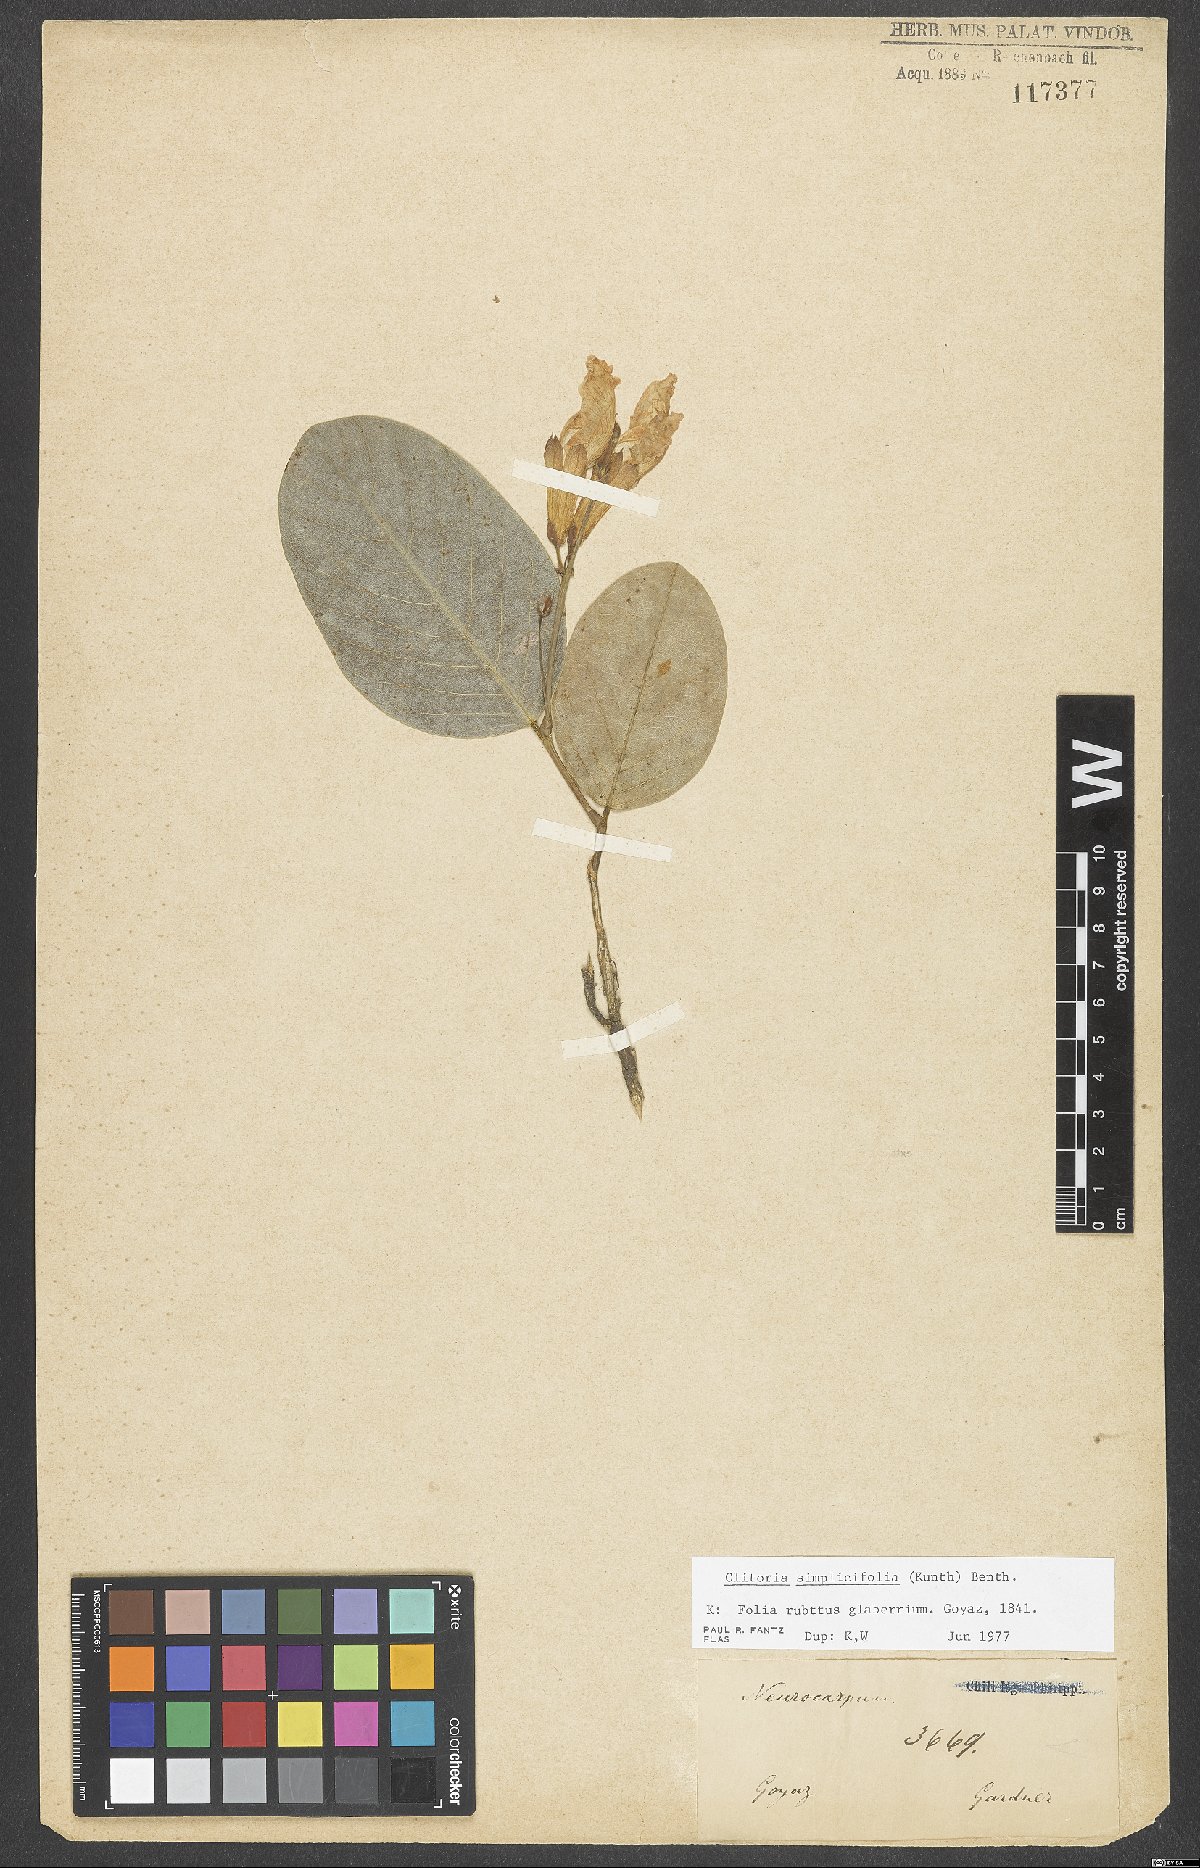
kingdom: Plantae
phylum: Tracheophyta
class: Magnoliopsida
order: Fabales
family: Fabaceae
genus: Clitoria
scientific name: Clitoria simplicifolia
